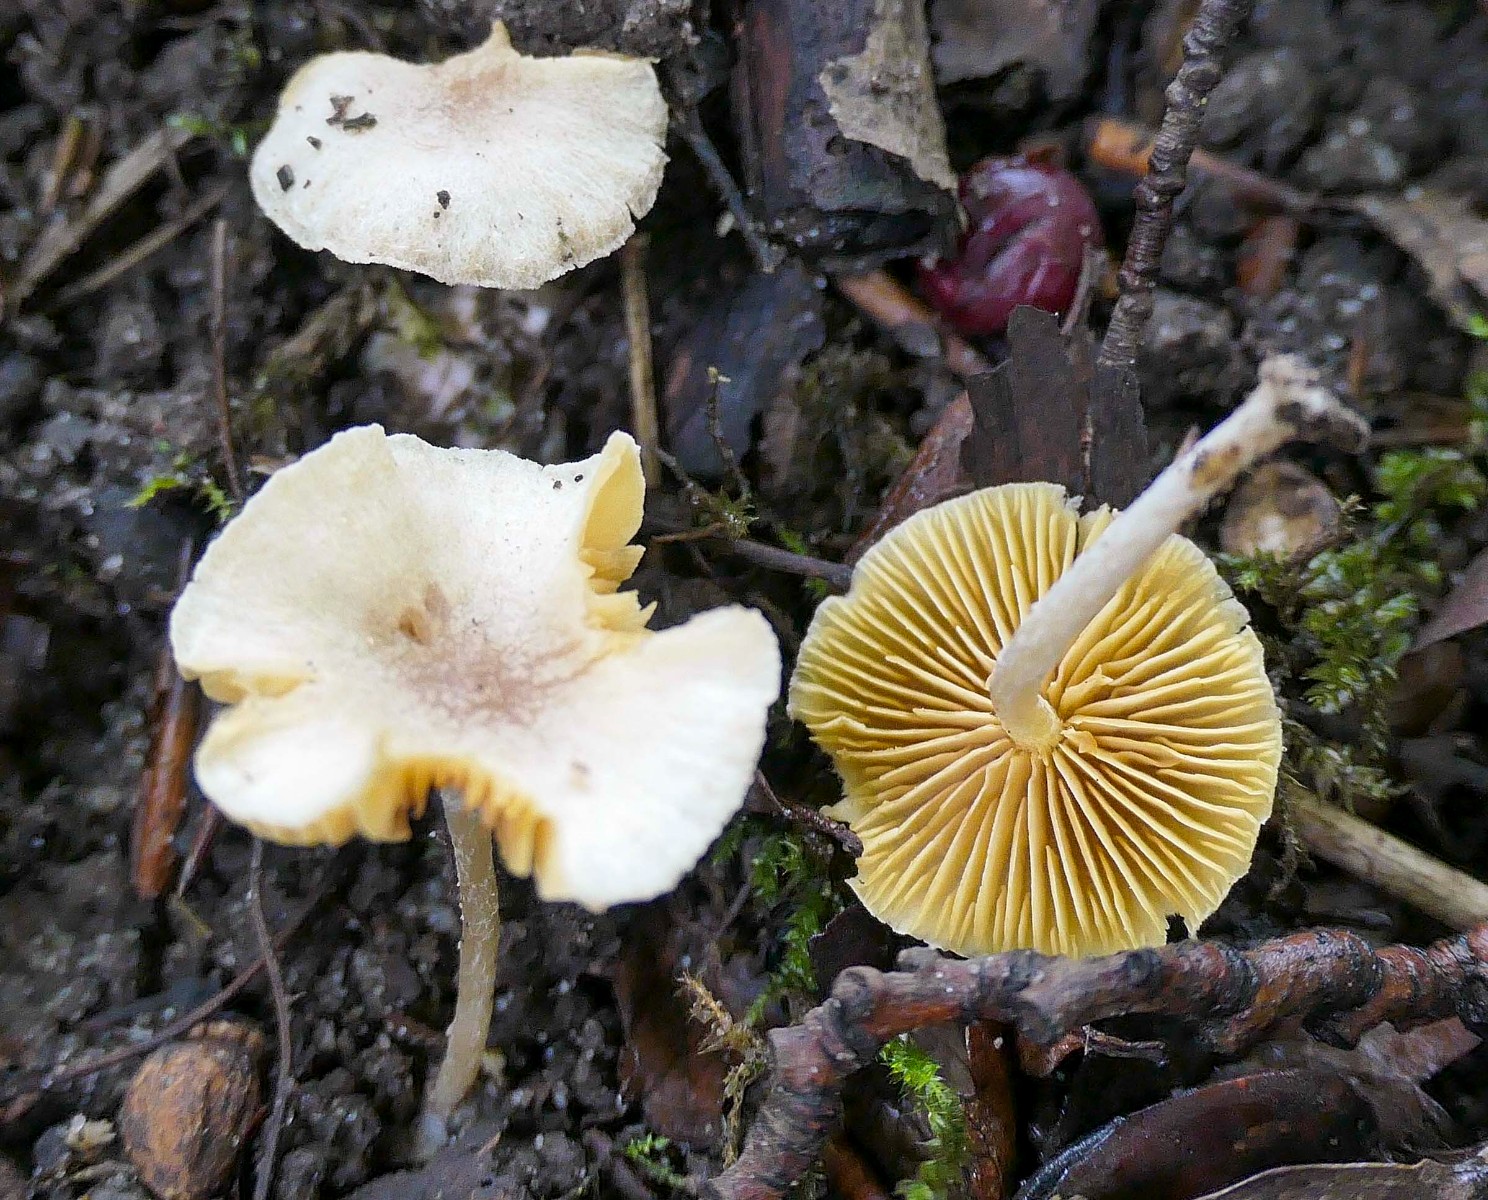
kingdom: Fungi
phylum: Basidiomycota
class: Agaricomycetes
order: Agaricales
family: Tubariaceae
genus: Tubaria
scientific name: Tubaria dispersa
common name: tjørne-fnughat
